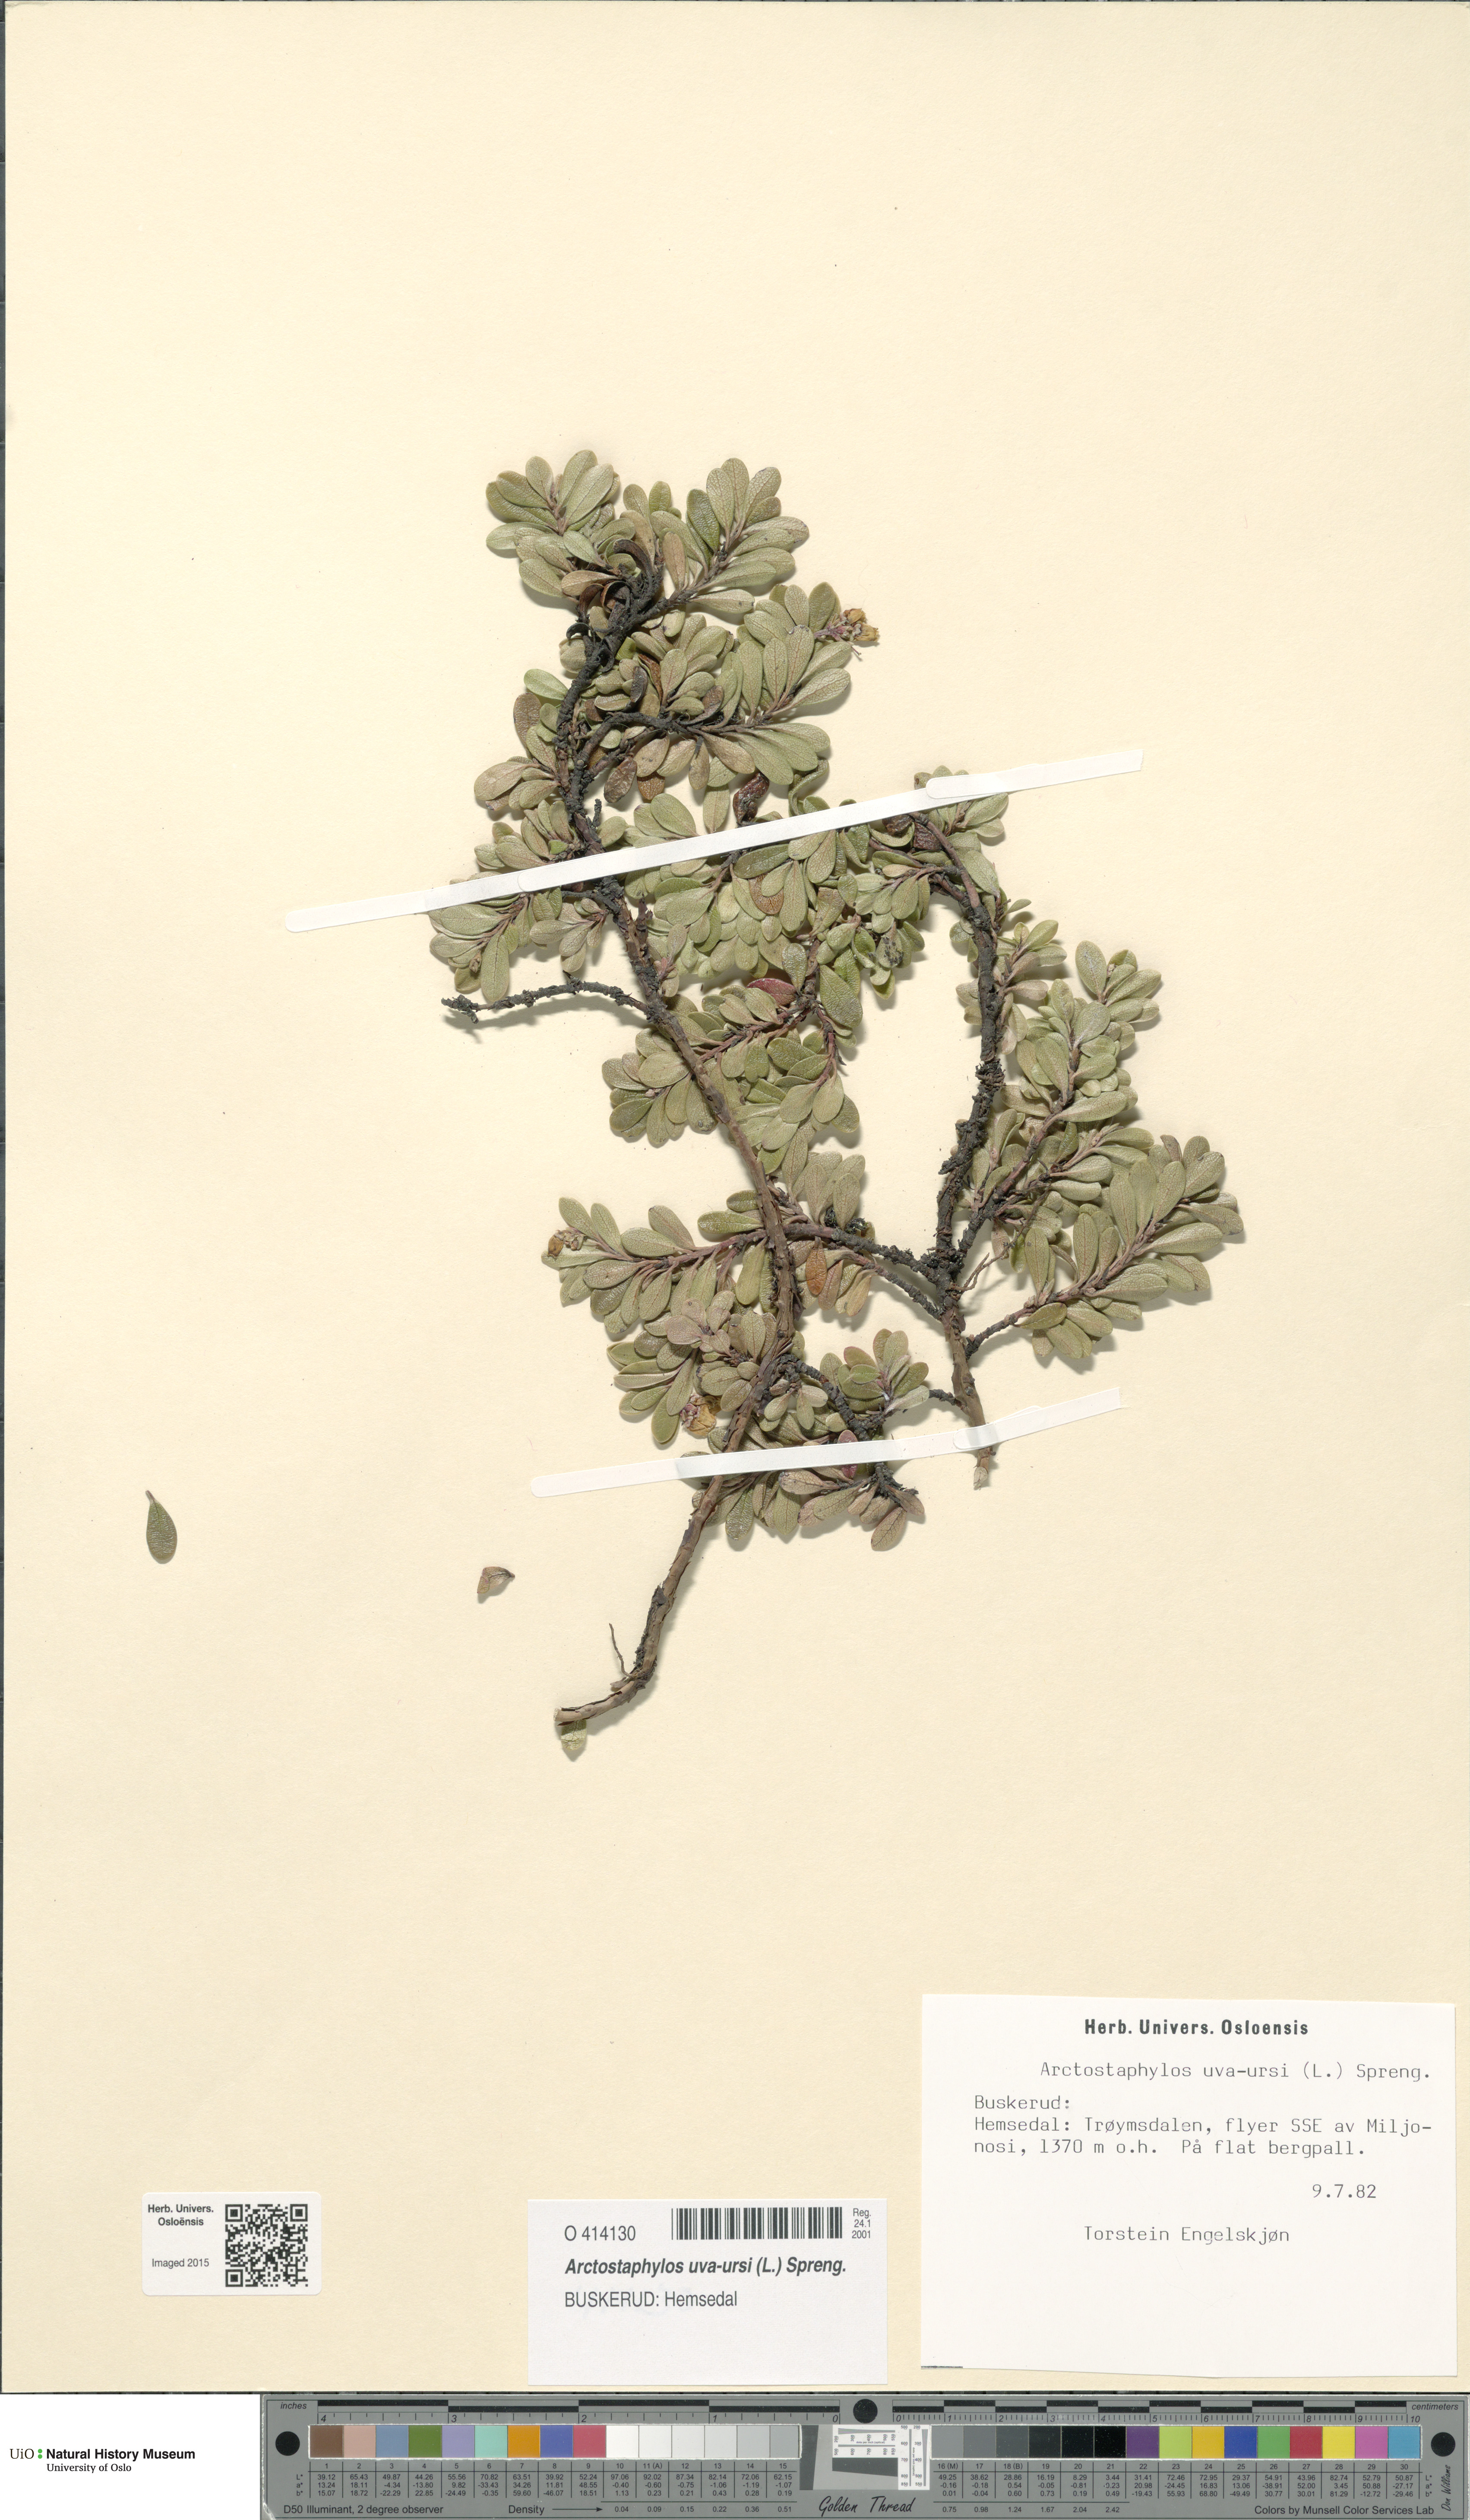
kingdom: Plantae
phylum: Tracheophyta
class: Magnoliopsida
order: Ericales
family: Ericaceae
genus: Arctostaphylos
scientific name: Arctostaphylos uva-ursi
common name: Bearberry
